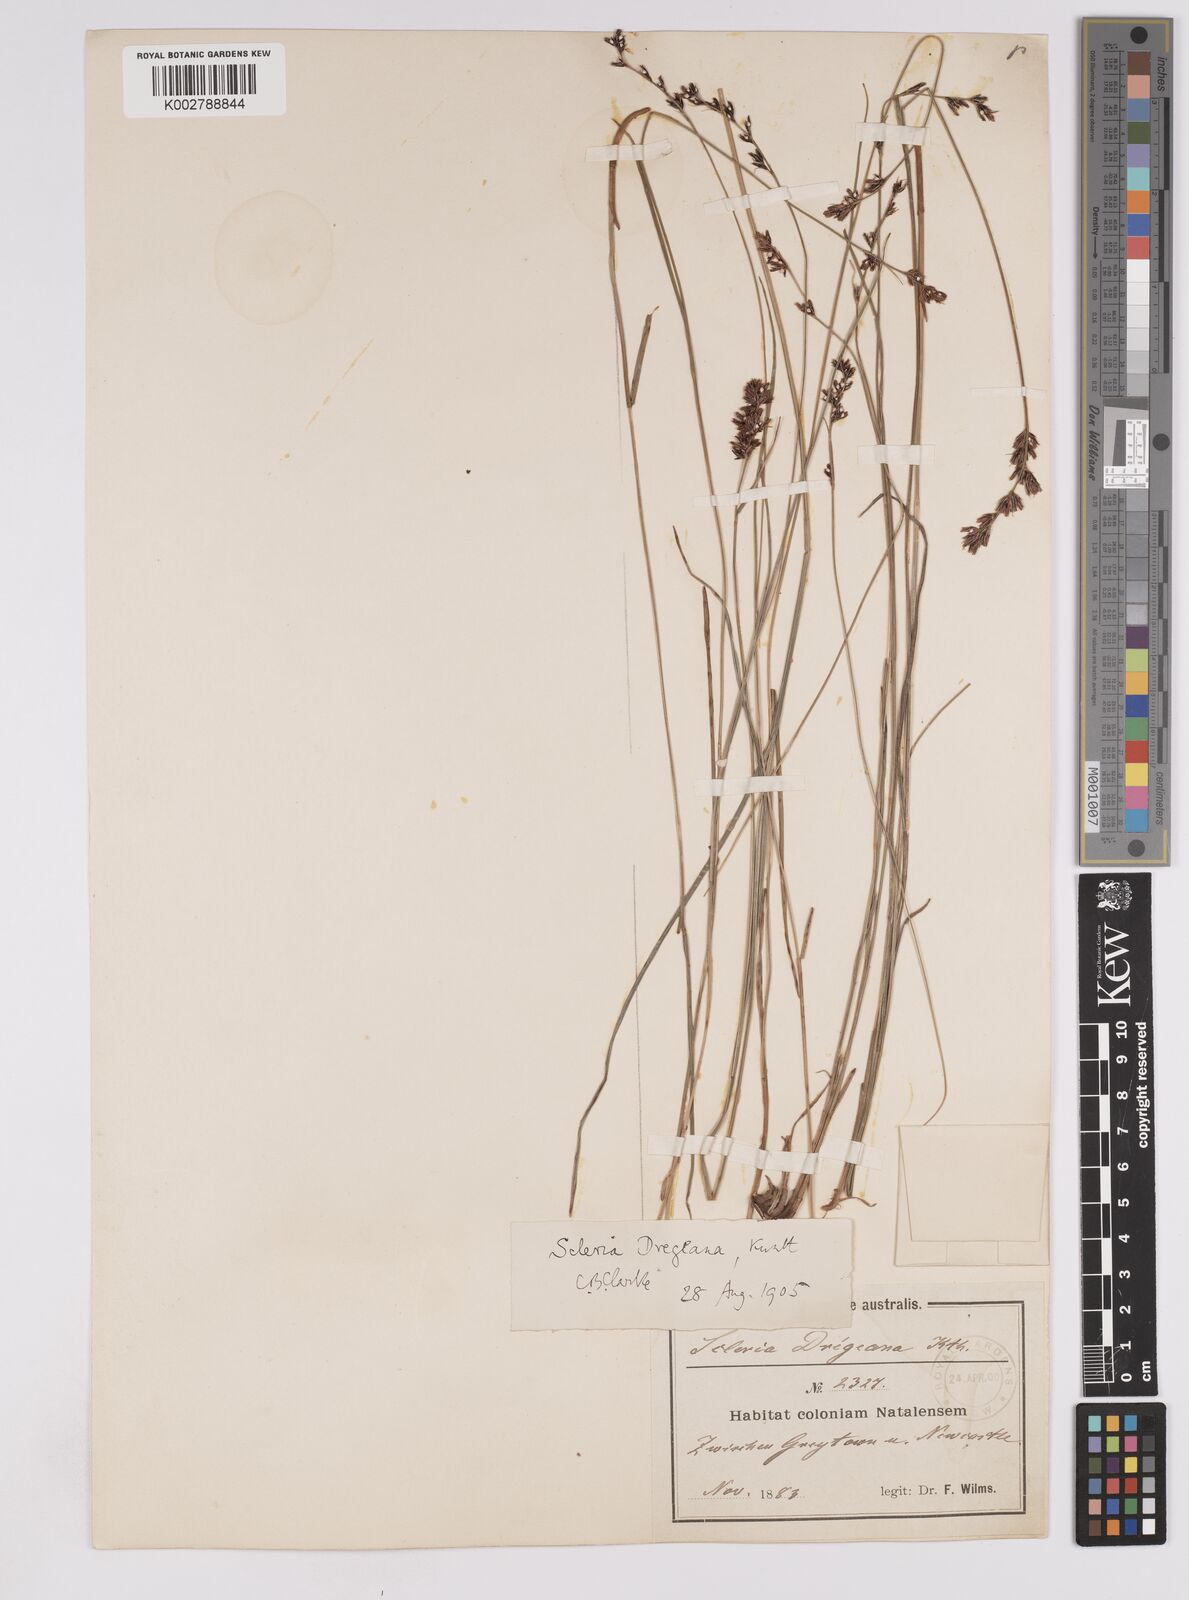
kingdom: Plantae
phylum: Tracheophyta
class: Liliopsida
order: Poales
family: Cyperaceae
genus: Scleria
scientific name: Scleria dregeana
